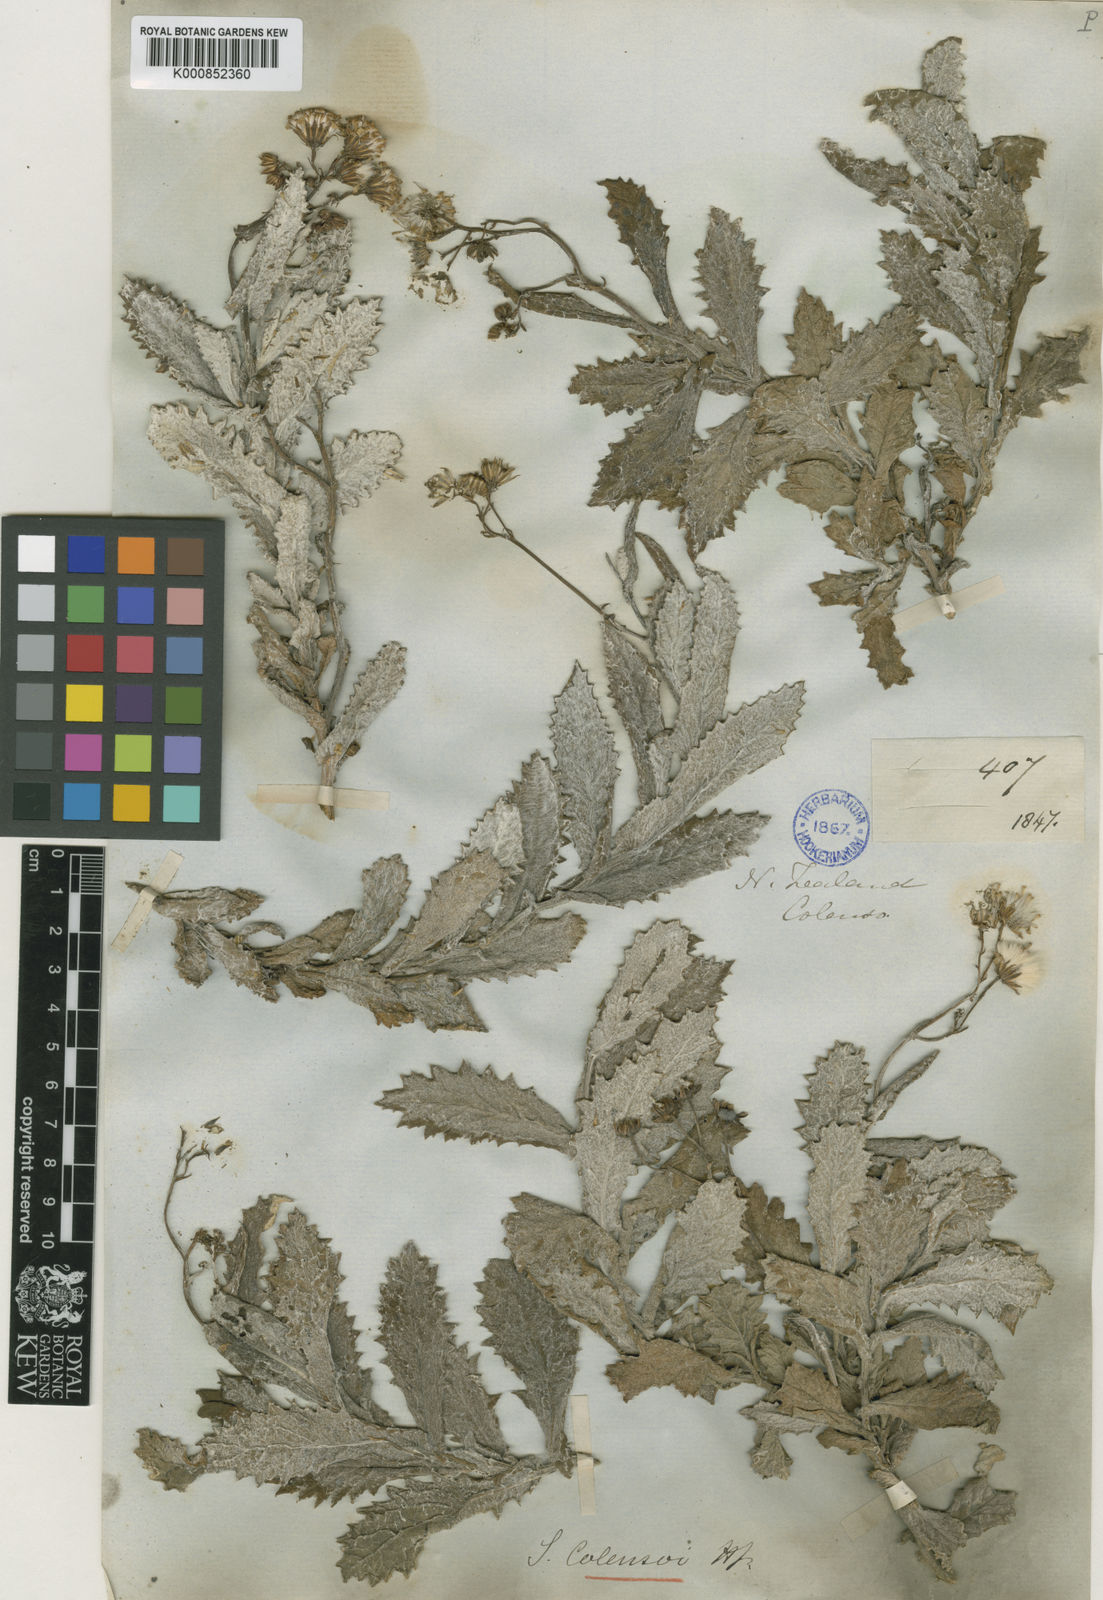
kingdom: Plantae
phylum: Tracheophyta
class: Magnoliopsida
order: Asterales
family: Asteraceae
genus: Senecio
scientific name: Senecio banksii
